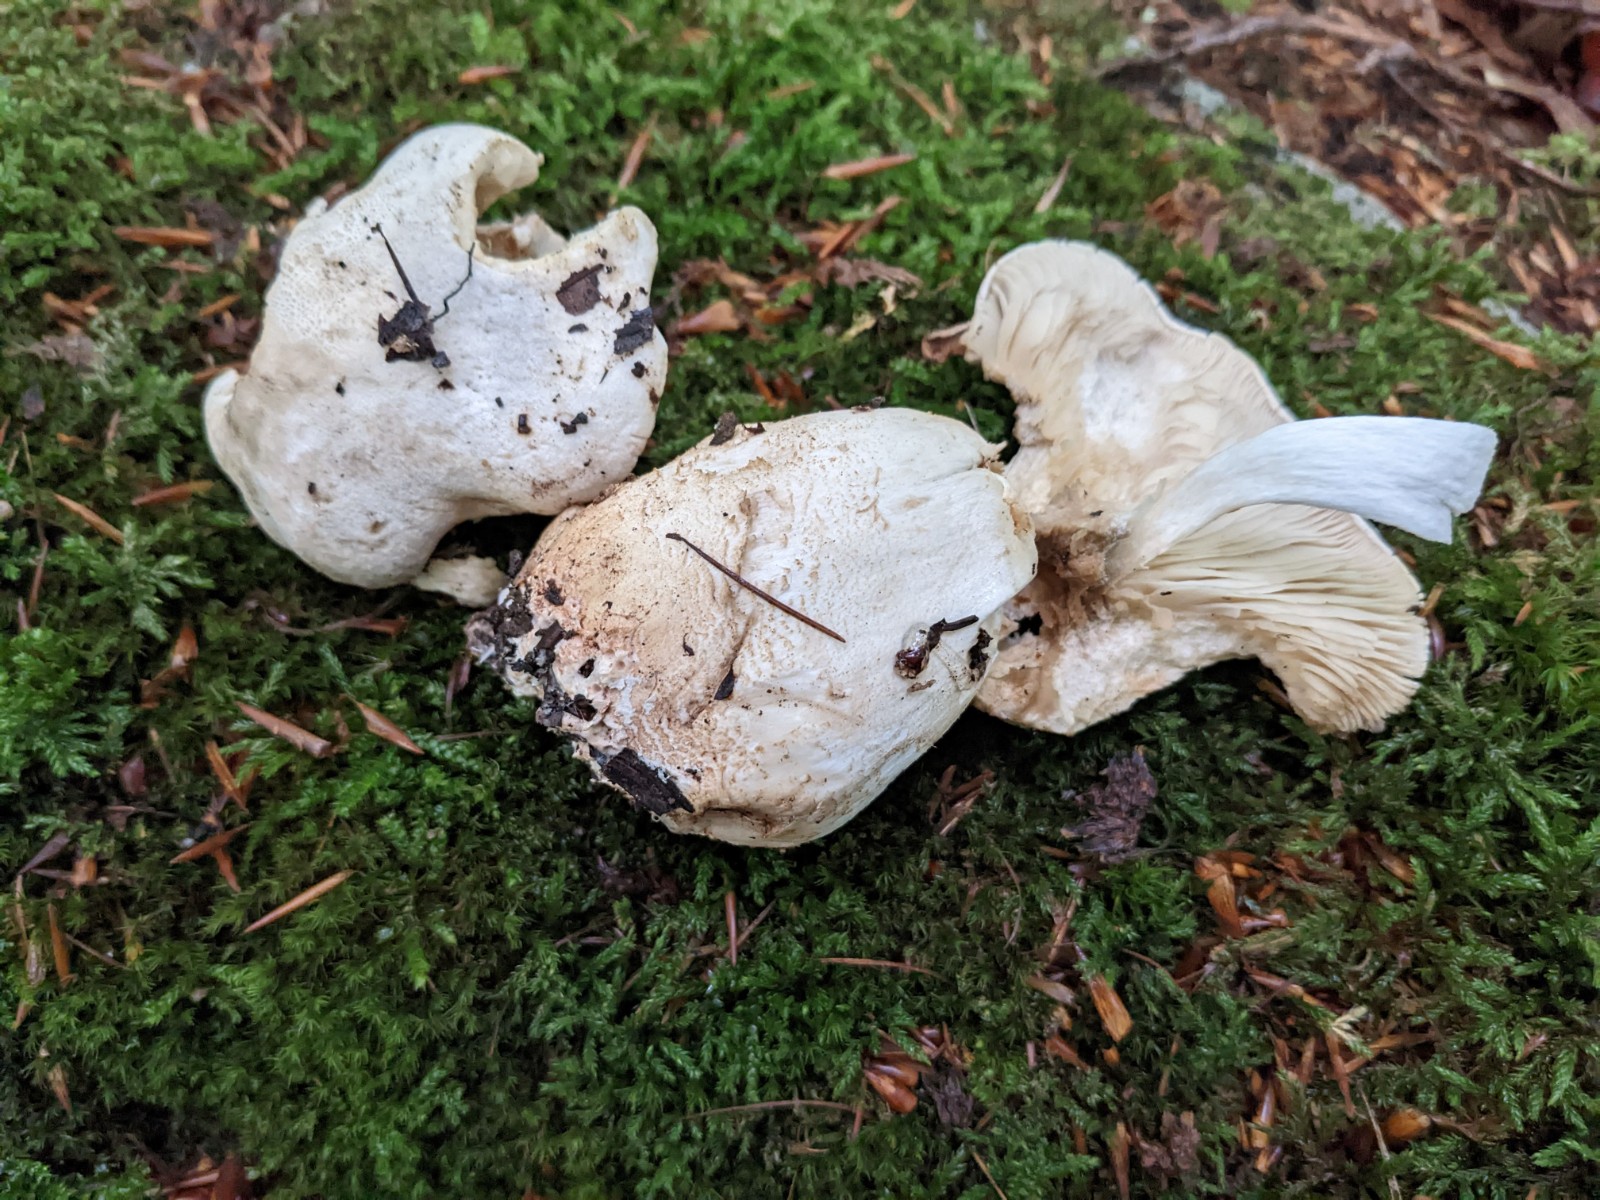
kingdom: Fungi
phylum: Basidiomycota
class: Agaricomycetes
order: Agaricales
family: Tricholomataceae
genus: Tricholoma
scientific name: Tricholoma filamentosum
